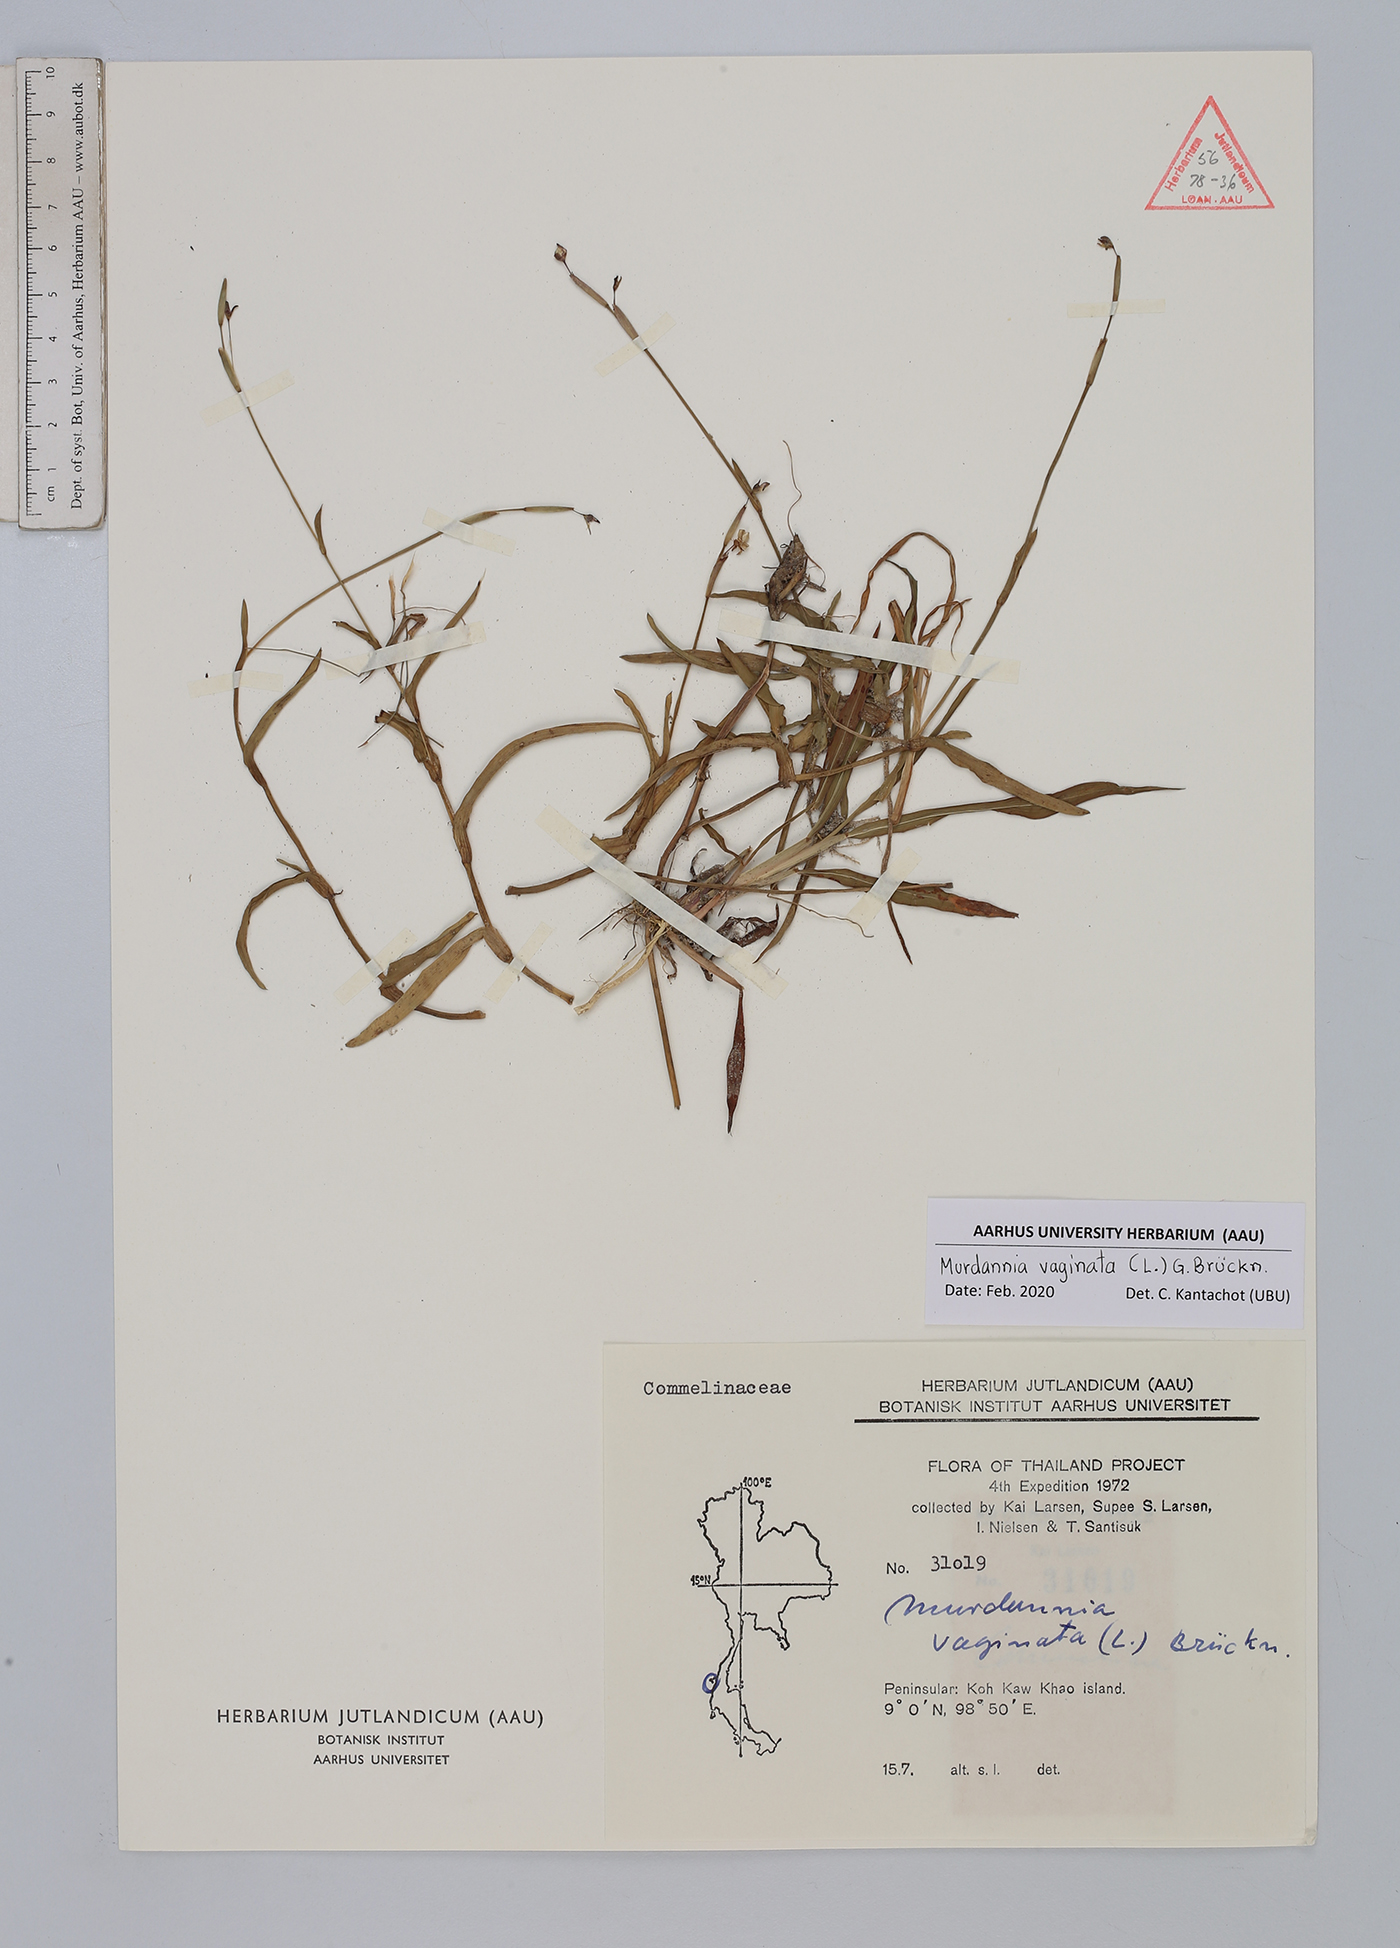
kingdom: Plantae
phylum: Tracheophyta
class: Liliopsida
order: Commelinales
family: Commelinaceae
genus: Murdannia
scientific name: Murdannia vaginata
